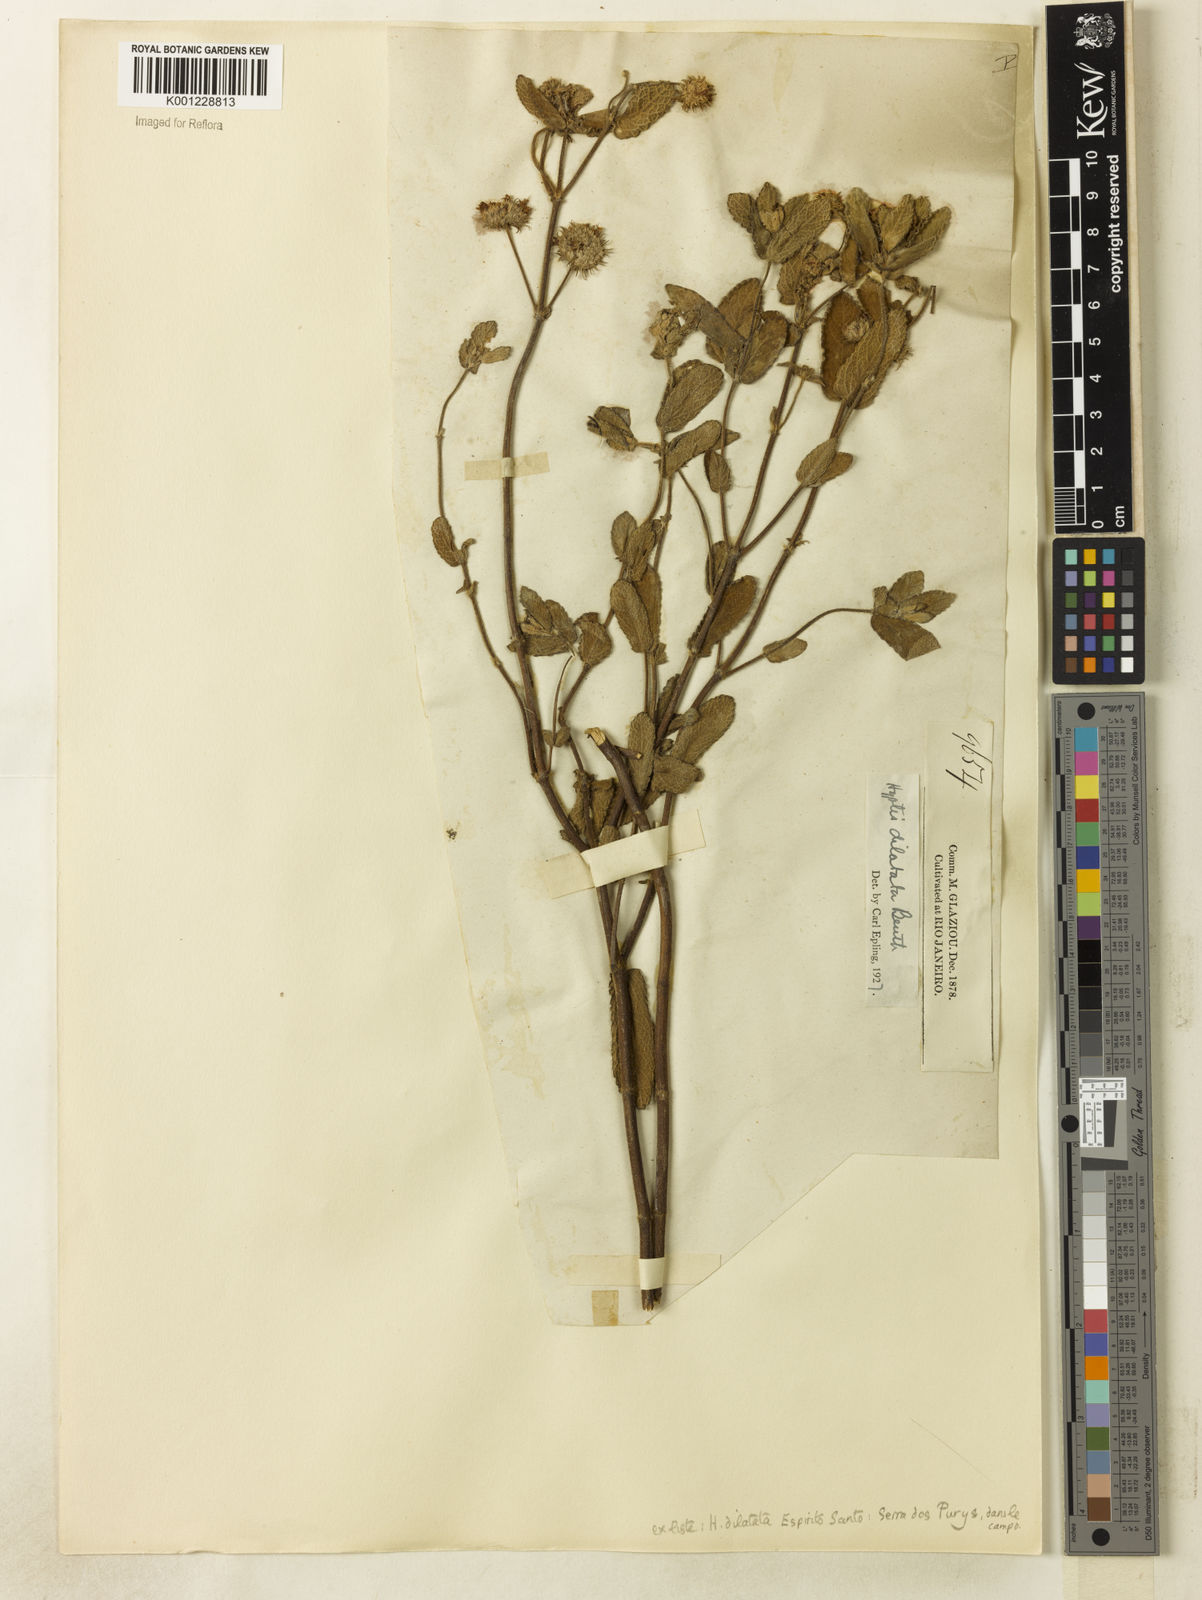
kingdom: Plantae
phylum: Tracheophyta
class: Magnoliopsida
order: Lamiales
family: Lamiaceae
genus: Hyptis
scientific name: Hyptis dilatata
